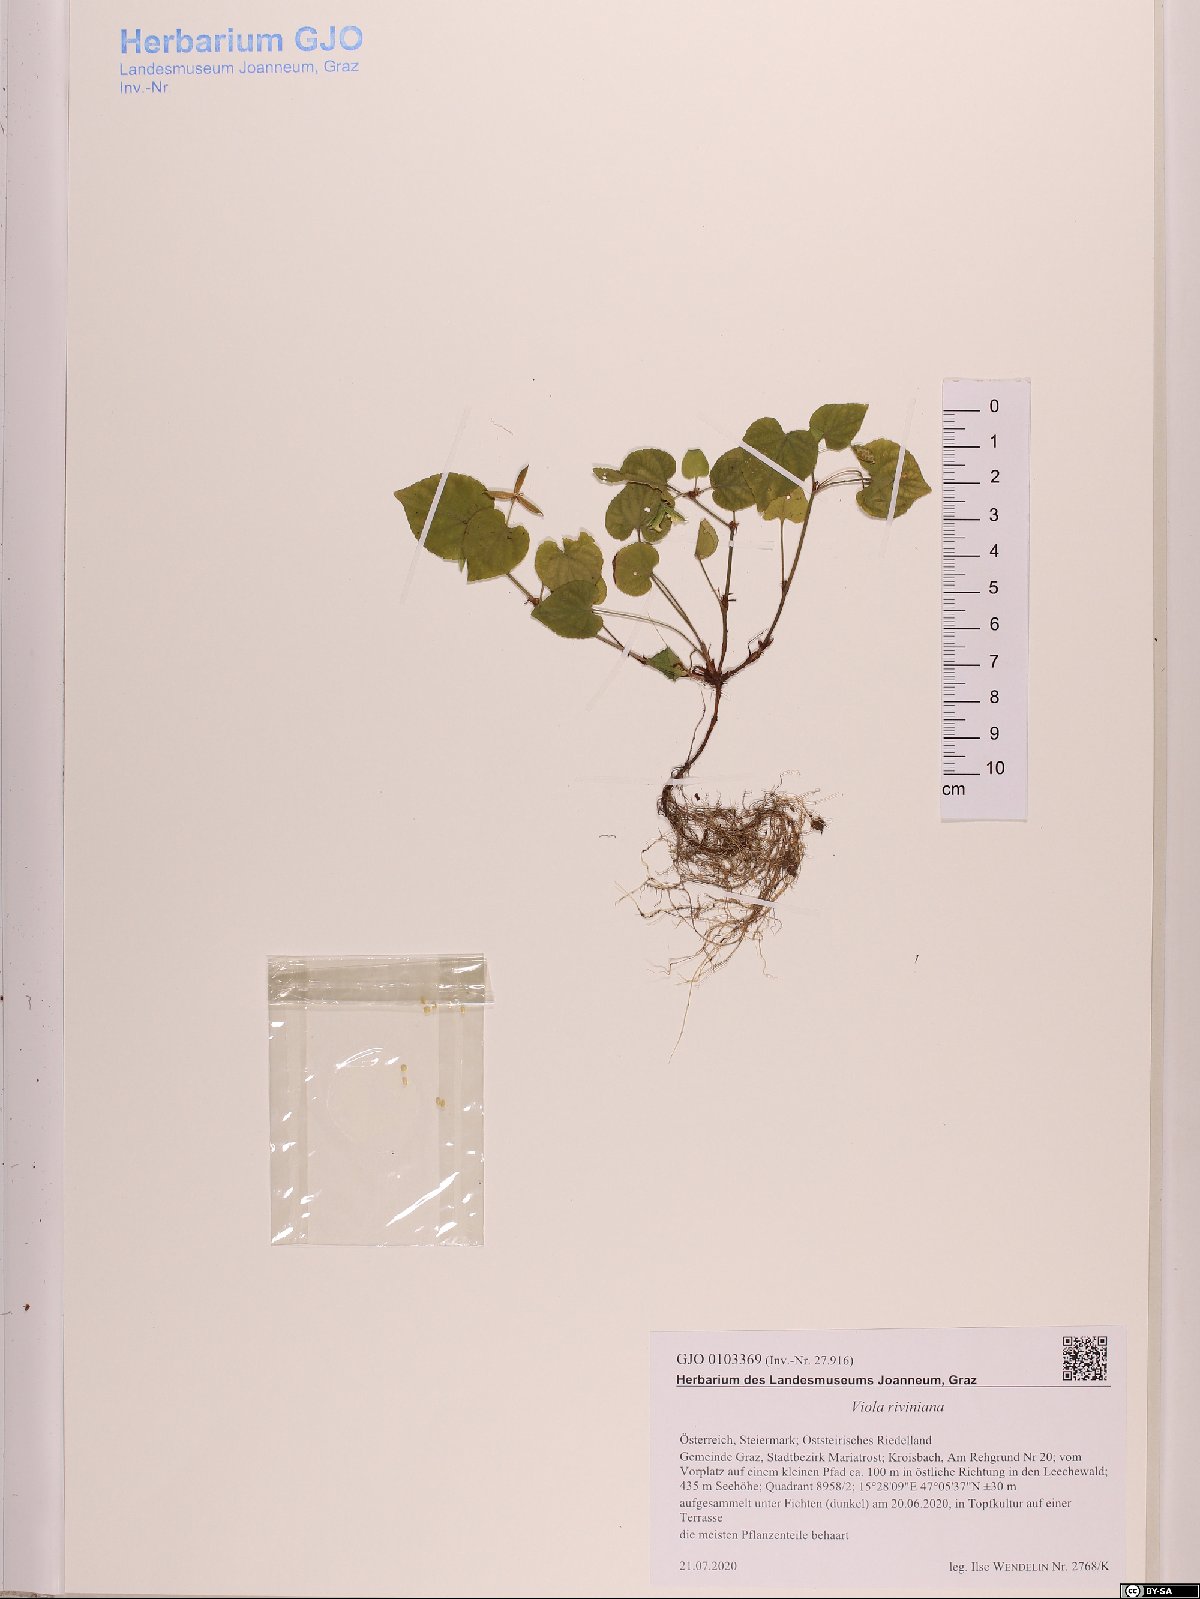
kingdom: Plantae
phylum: Tracheophyta
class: Magnoliopsida
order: Malpighiales
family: Violaceae
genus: Viola
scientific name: Viola riviniana
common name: Common dog-violet
